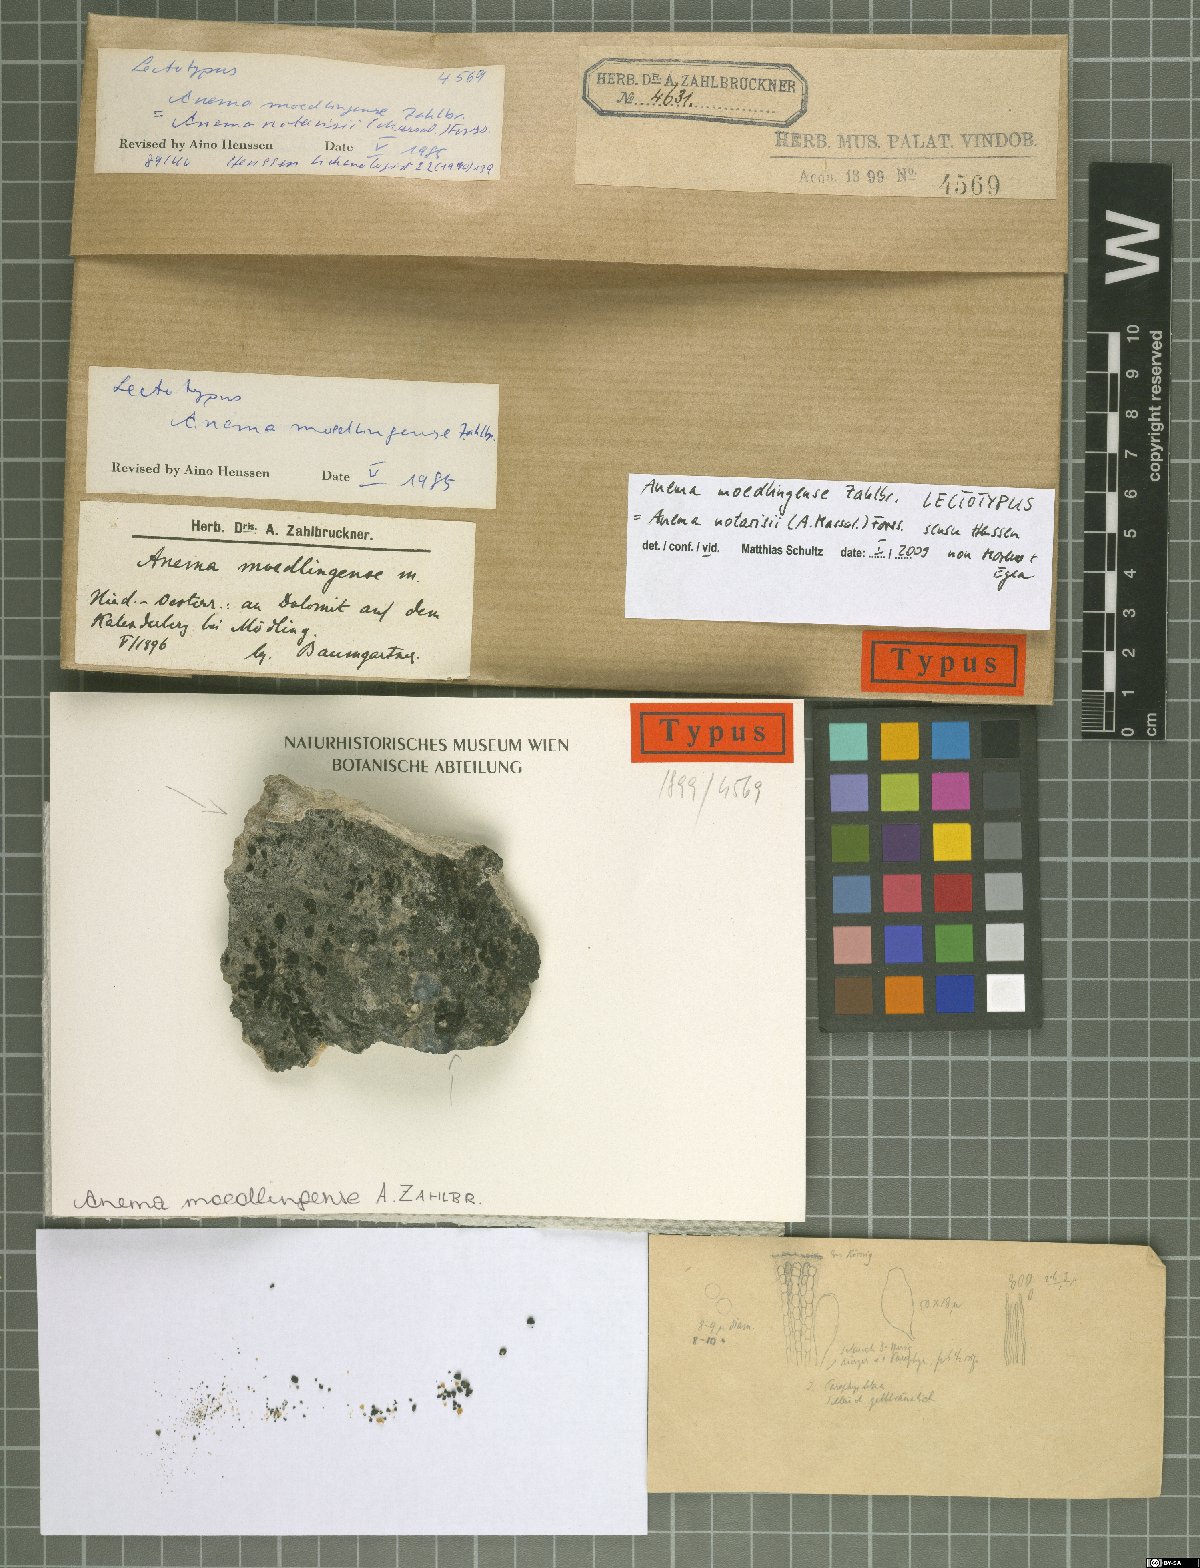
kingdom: Fungi
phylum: Ascomycota
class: Lichinomycetes
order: Lichinales
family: Lichinaceae
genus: Anema
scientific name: Anema moedlingense
